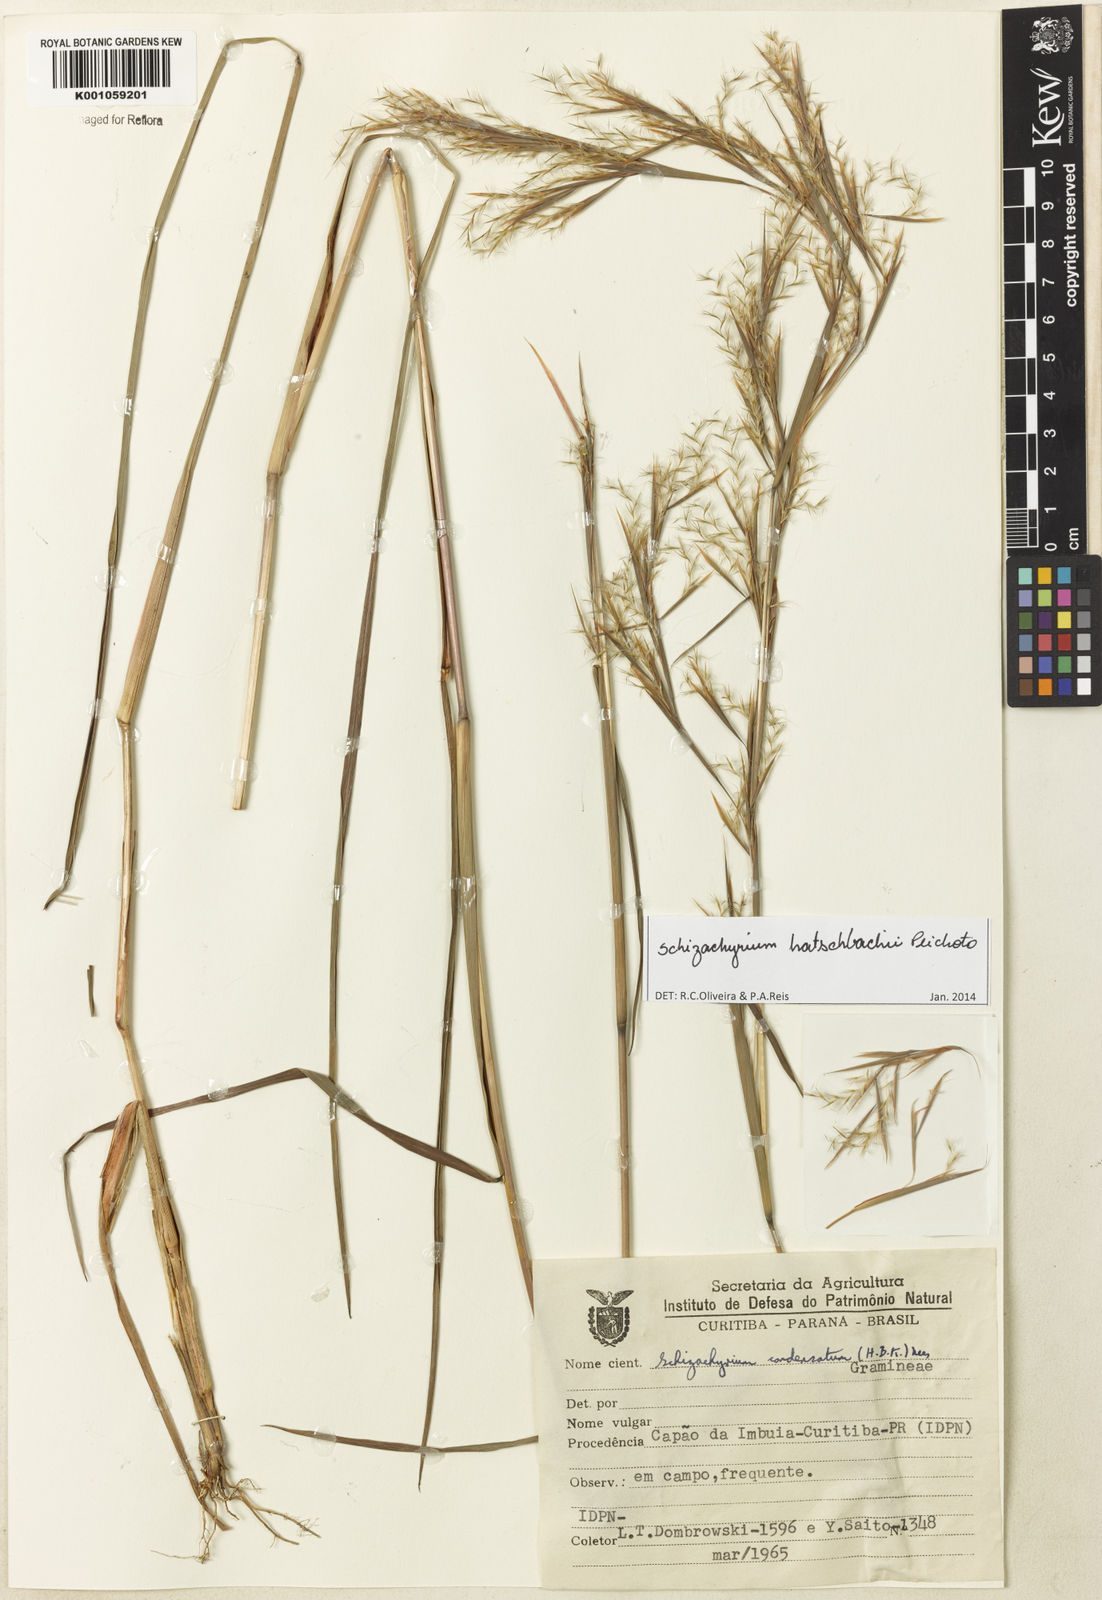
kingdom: Plantae
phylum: Tracheophyta
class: Liliopsida
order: Poales
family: Poaceae
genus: Schizachyrium
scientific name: Schizachyrium hatschbachii
